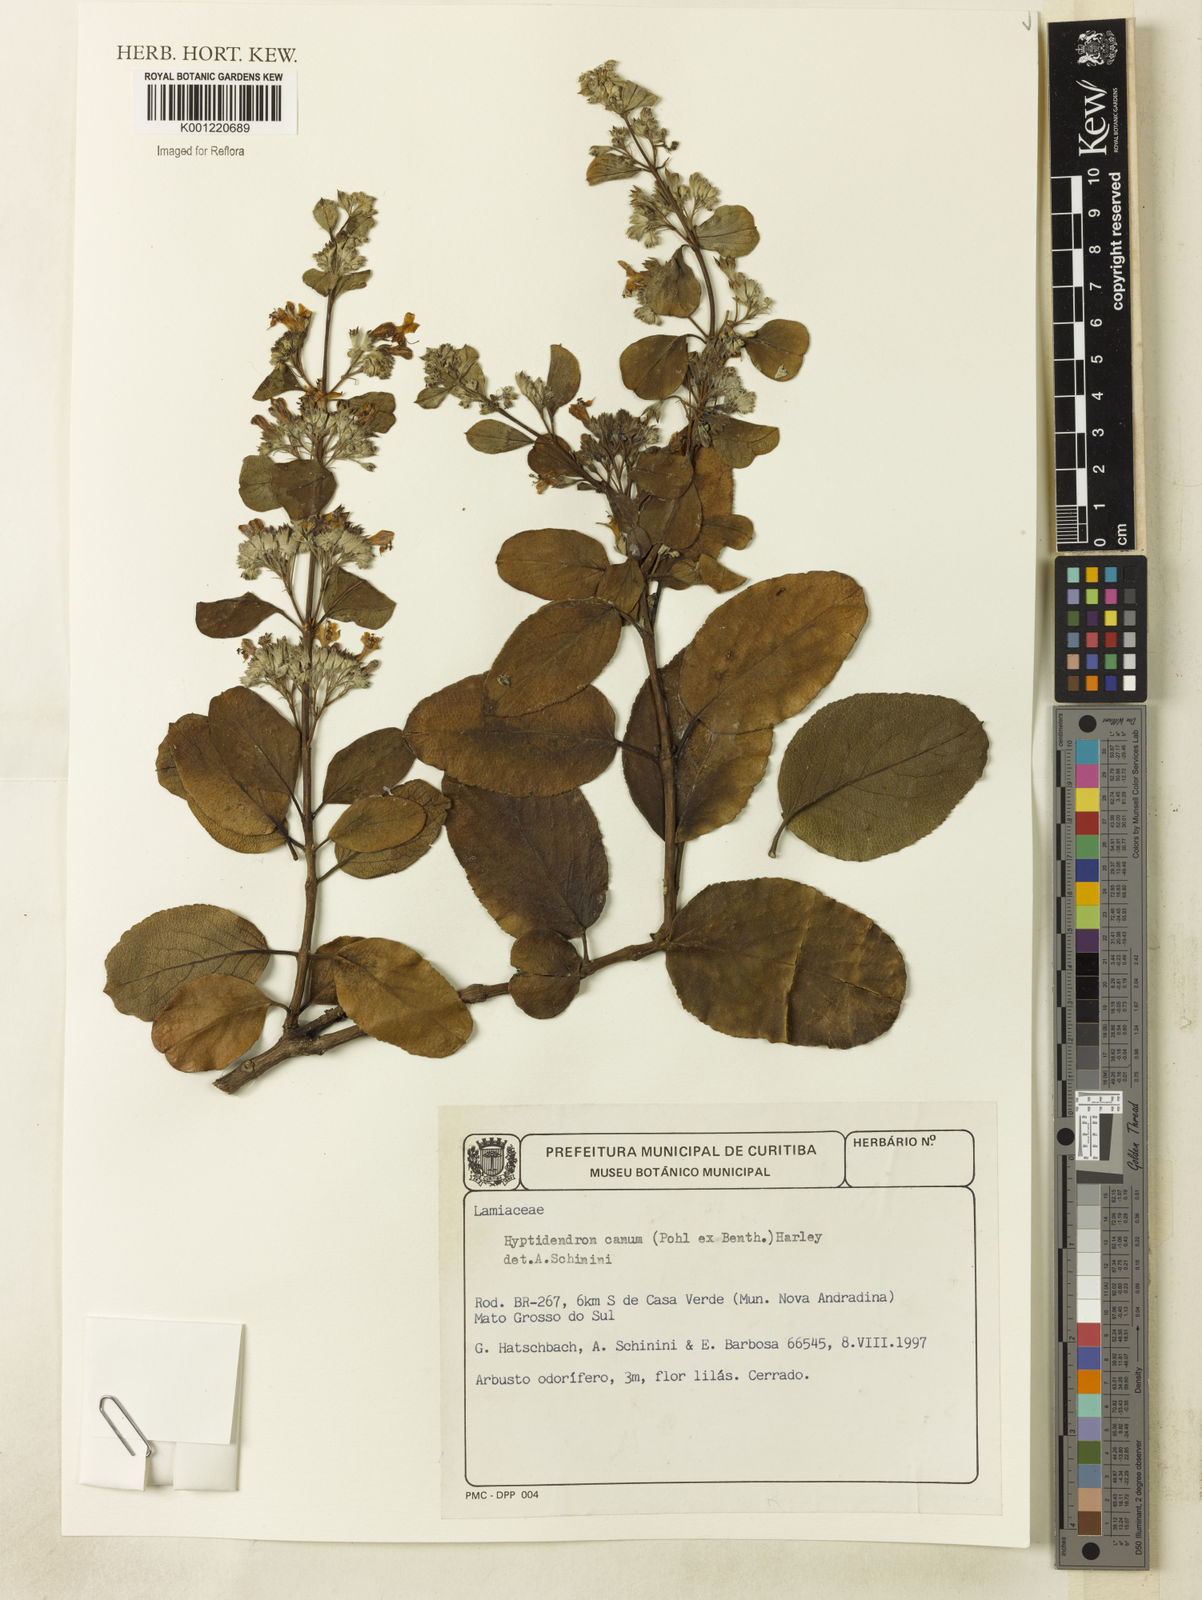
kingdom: Plantae
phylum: Tracheophyta
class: Magnoliopsida
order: Lamiales
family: Lamiaceae
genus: Hyptidendron
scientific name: Hyptidendron canum
